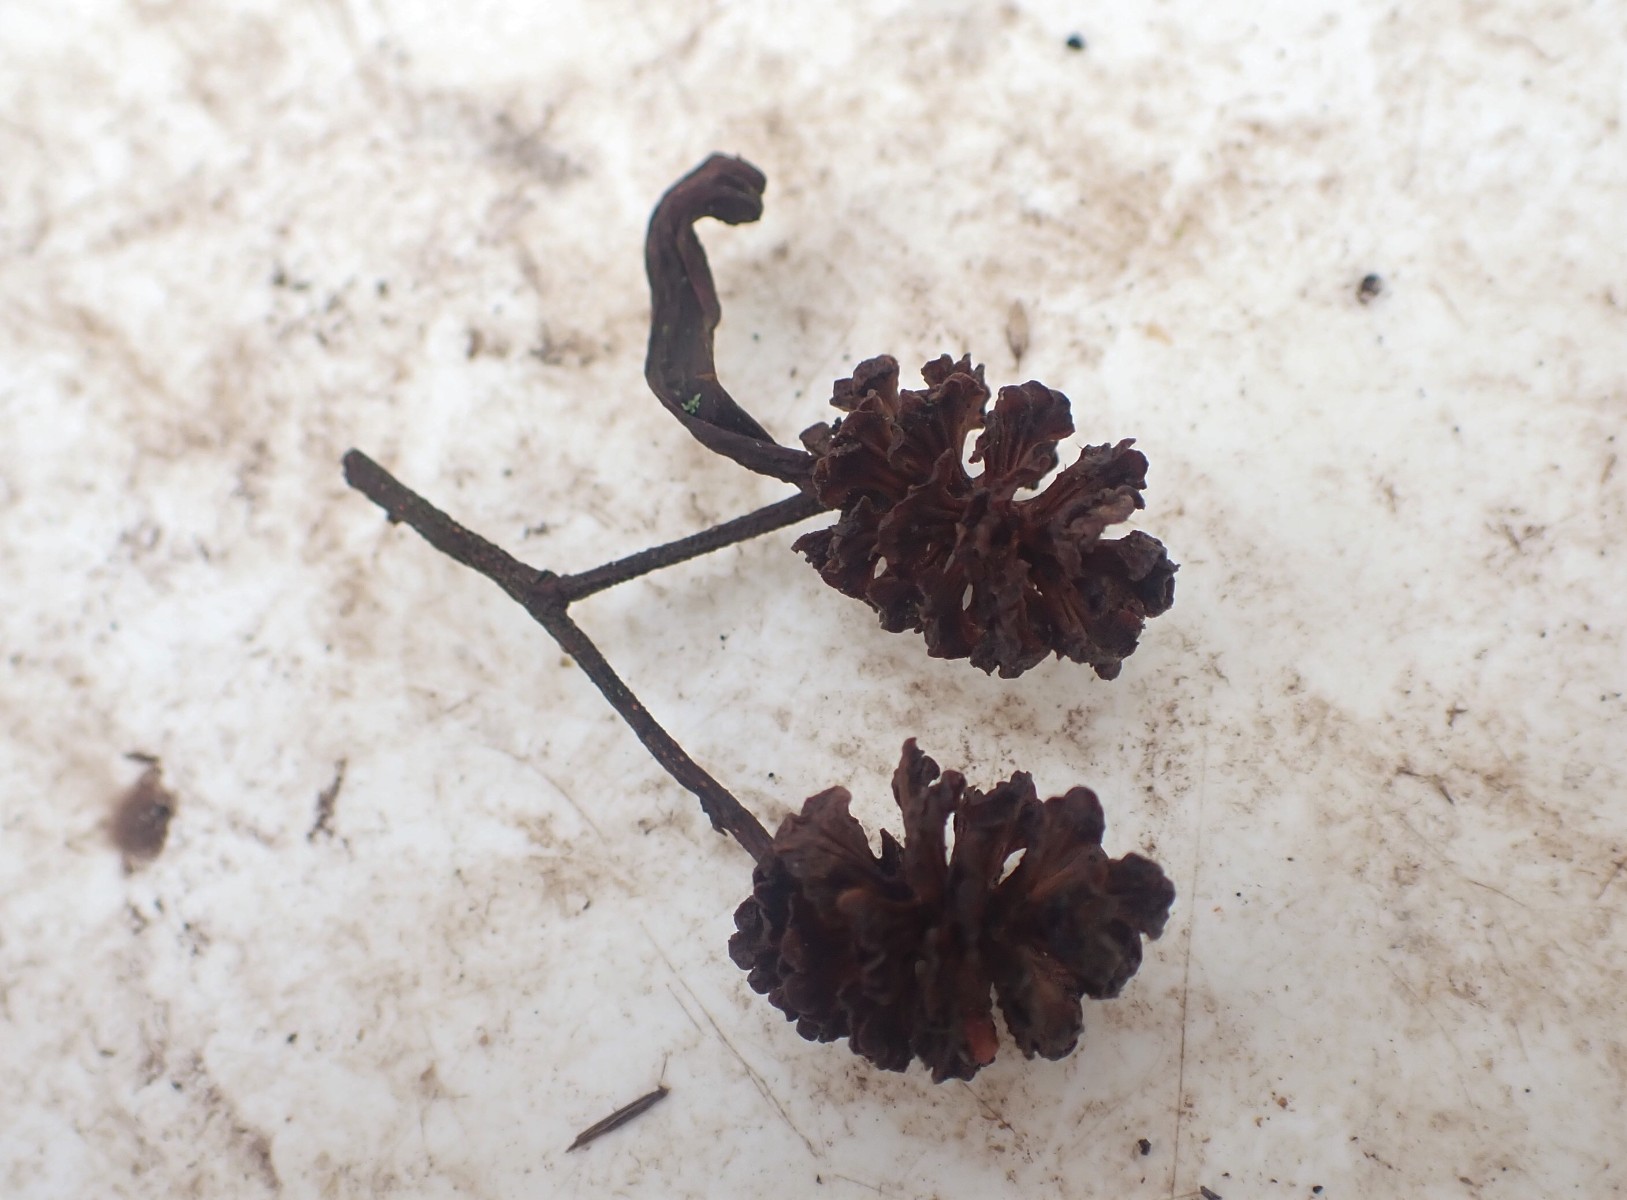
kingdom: Fungi
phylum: Ascomycota
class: Taphrinomycetes
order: Taphrinales
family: Taphrinaceae
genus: Taphrina
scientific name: Taphrina alni
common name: Alder tongue
